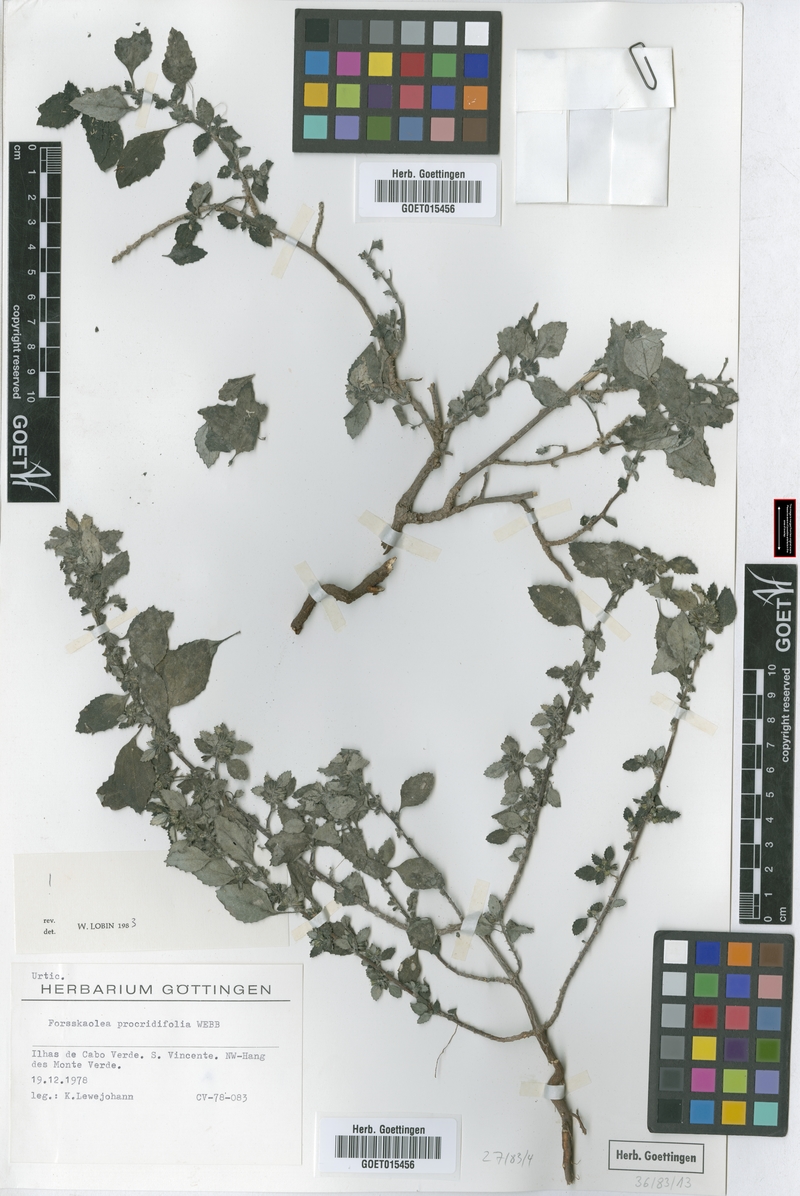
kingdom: Plantae
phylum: Tracheophyta
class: Magnoliopsida
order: Rosales
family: Urticaceae
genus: Forsskaolea
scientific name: Forsskaolea procridifolia
